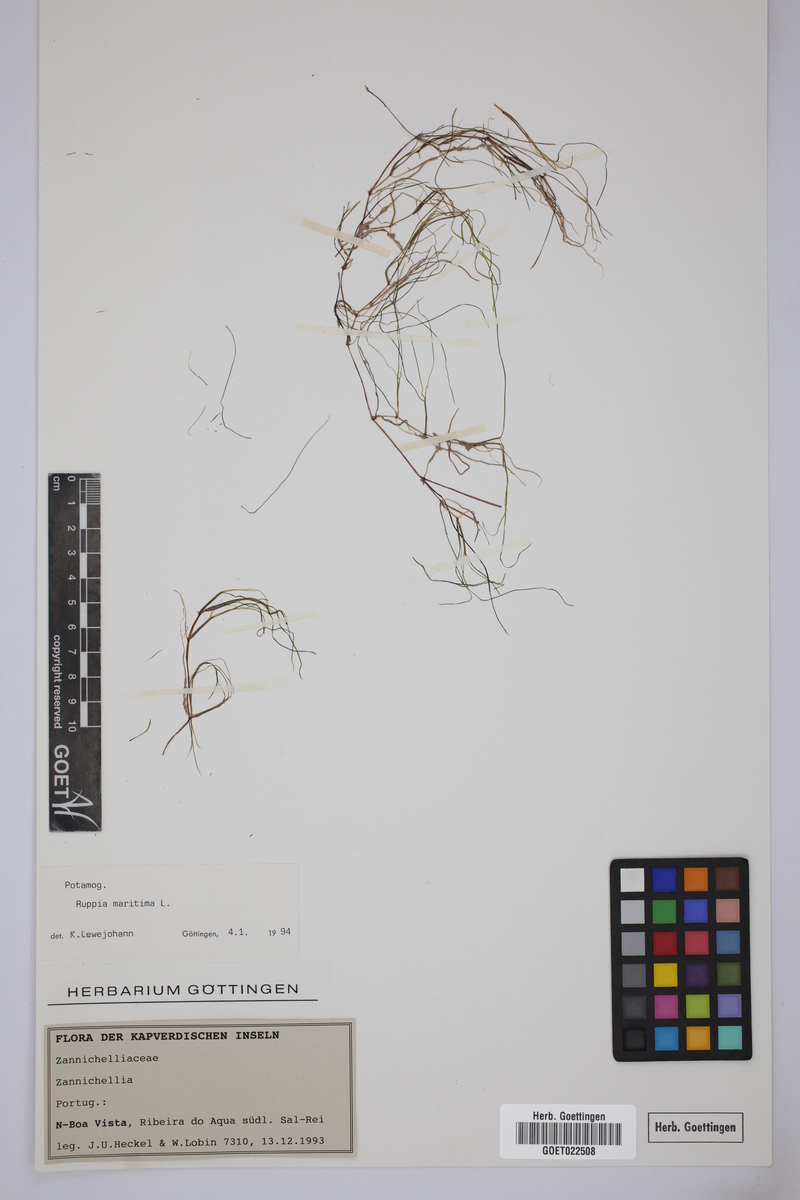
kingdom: Plantae
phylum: Tracheophyta
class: Liliopsida
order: Alismatales
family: Ruppiaceae
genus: Ruppia
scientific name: Ruppia maritima
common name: Beaked tasselweed
